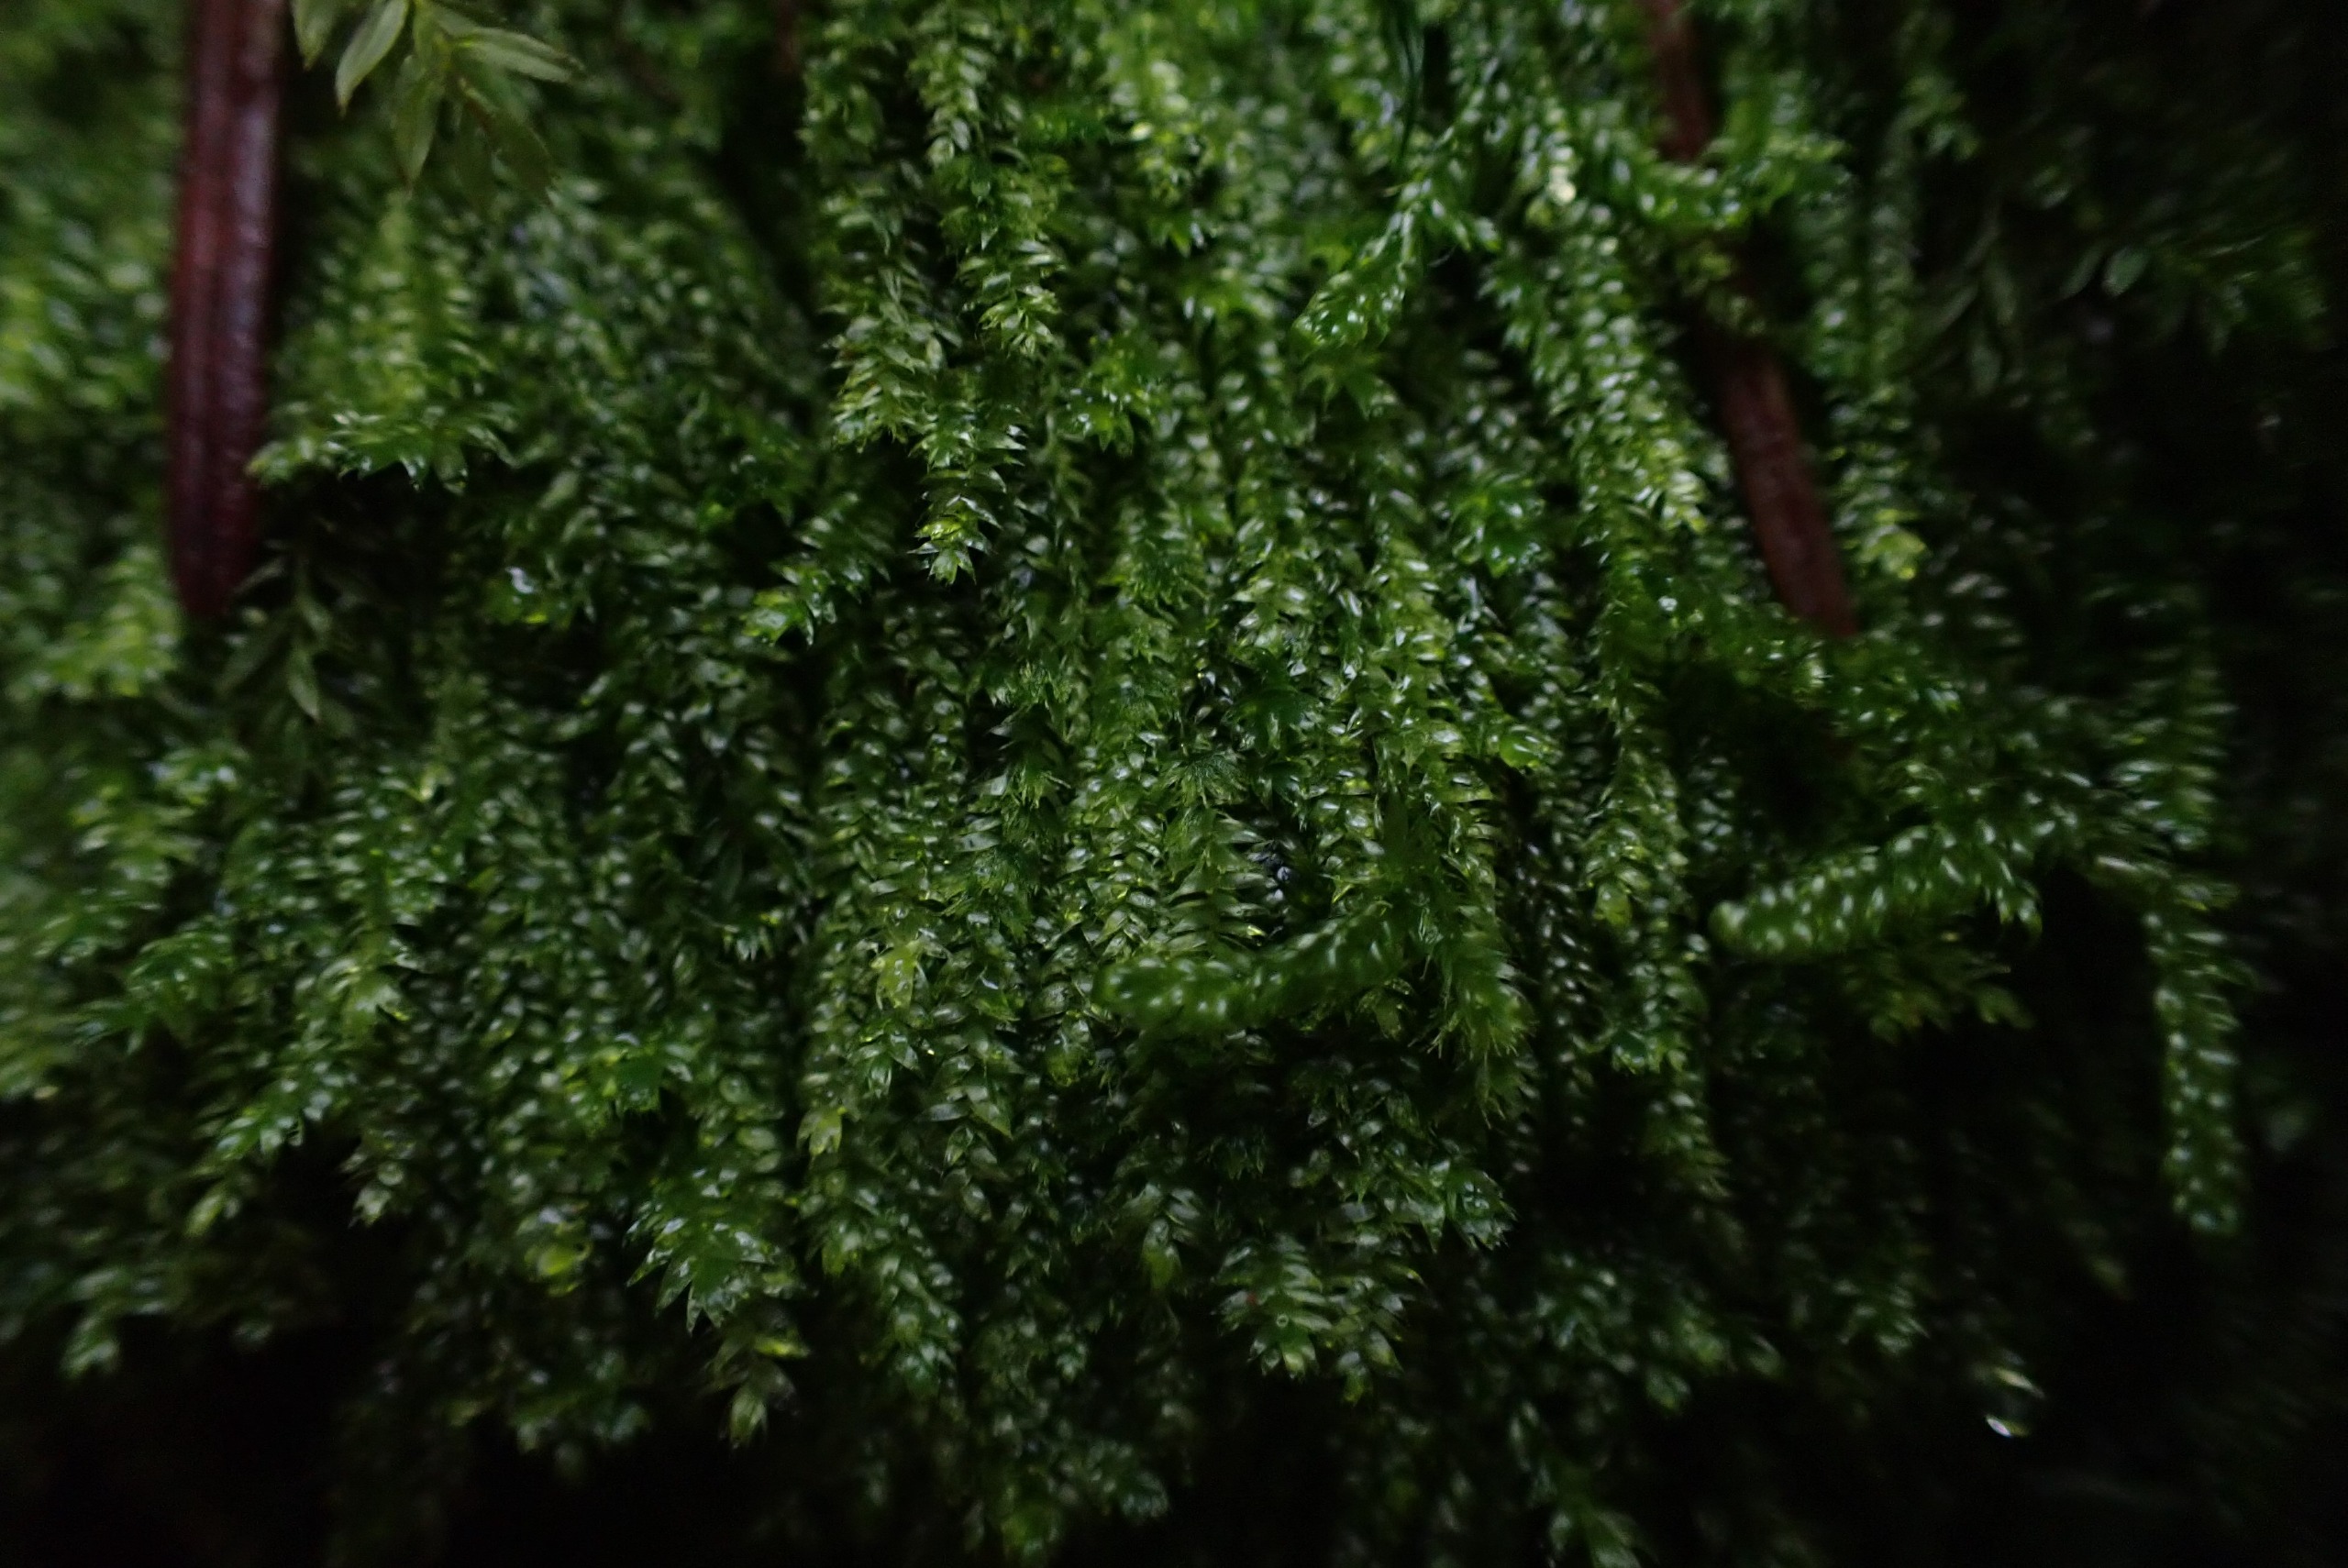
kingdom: Plantae
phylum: Bryophyta
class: Bryopsida
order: Hypnales
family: Plagiotheciaceae
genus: Pseudotaxiphyllum
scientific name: Pseudotaxiphyllum elegans
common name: Skinnende ynglegren
